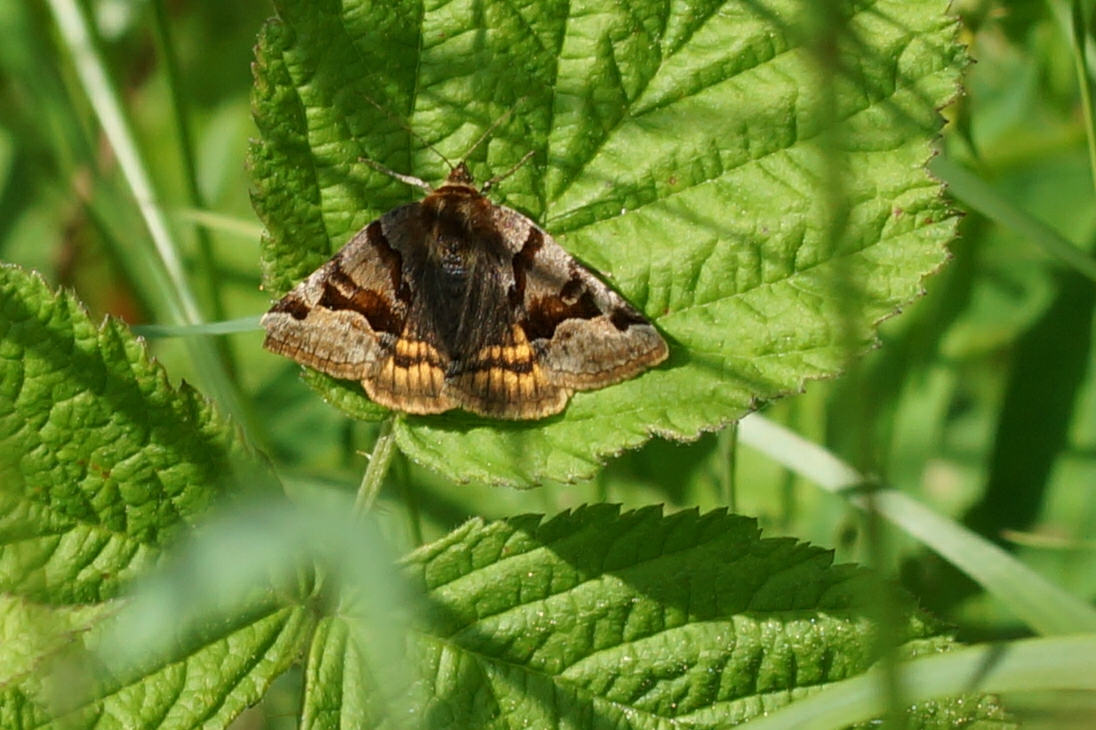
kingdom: Animalia
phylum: Arthropoda
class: Insecta
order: Lepidoptera
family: Erebidae
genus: Euclidia
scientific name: Euclidia glyphica
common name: Brun kløverugle
